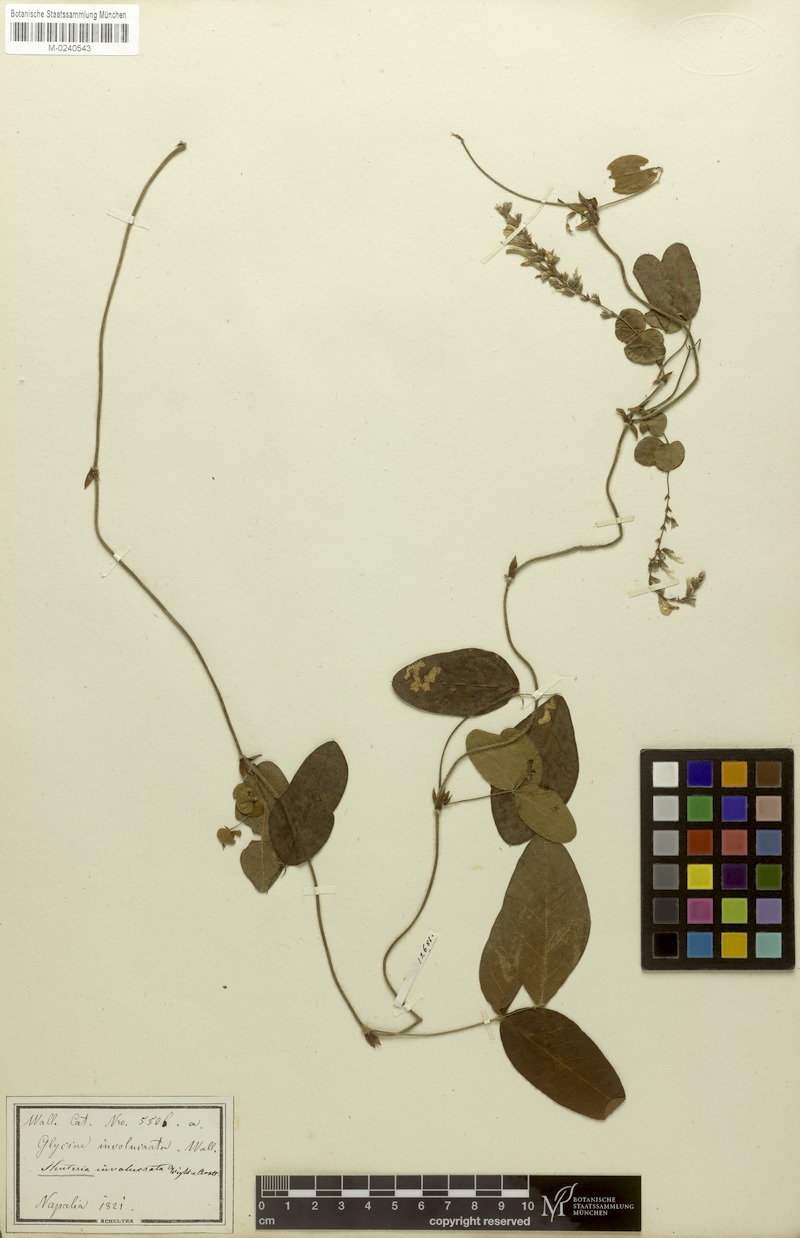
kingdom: Plantae
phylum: Tracheophyta
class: Magnoliopsida
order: Fabales
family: Fabaceae
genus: Shuteria
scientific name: Shuteria involucrata
